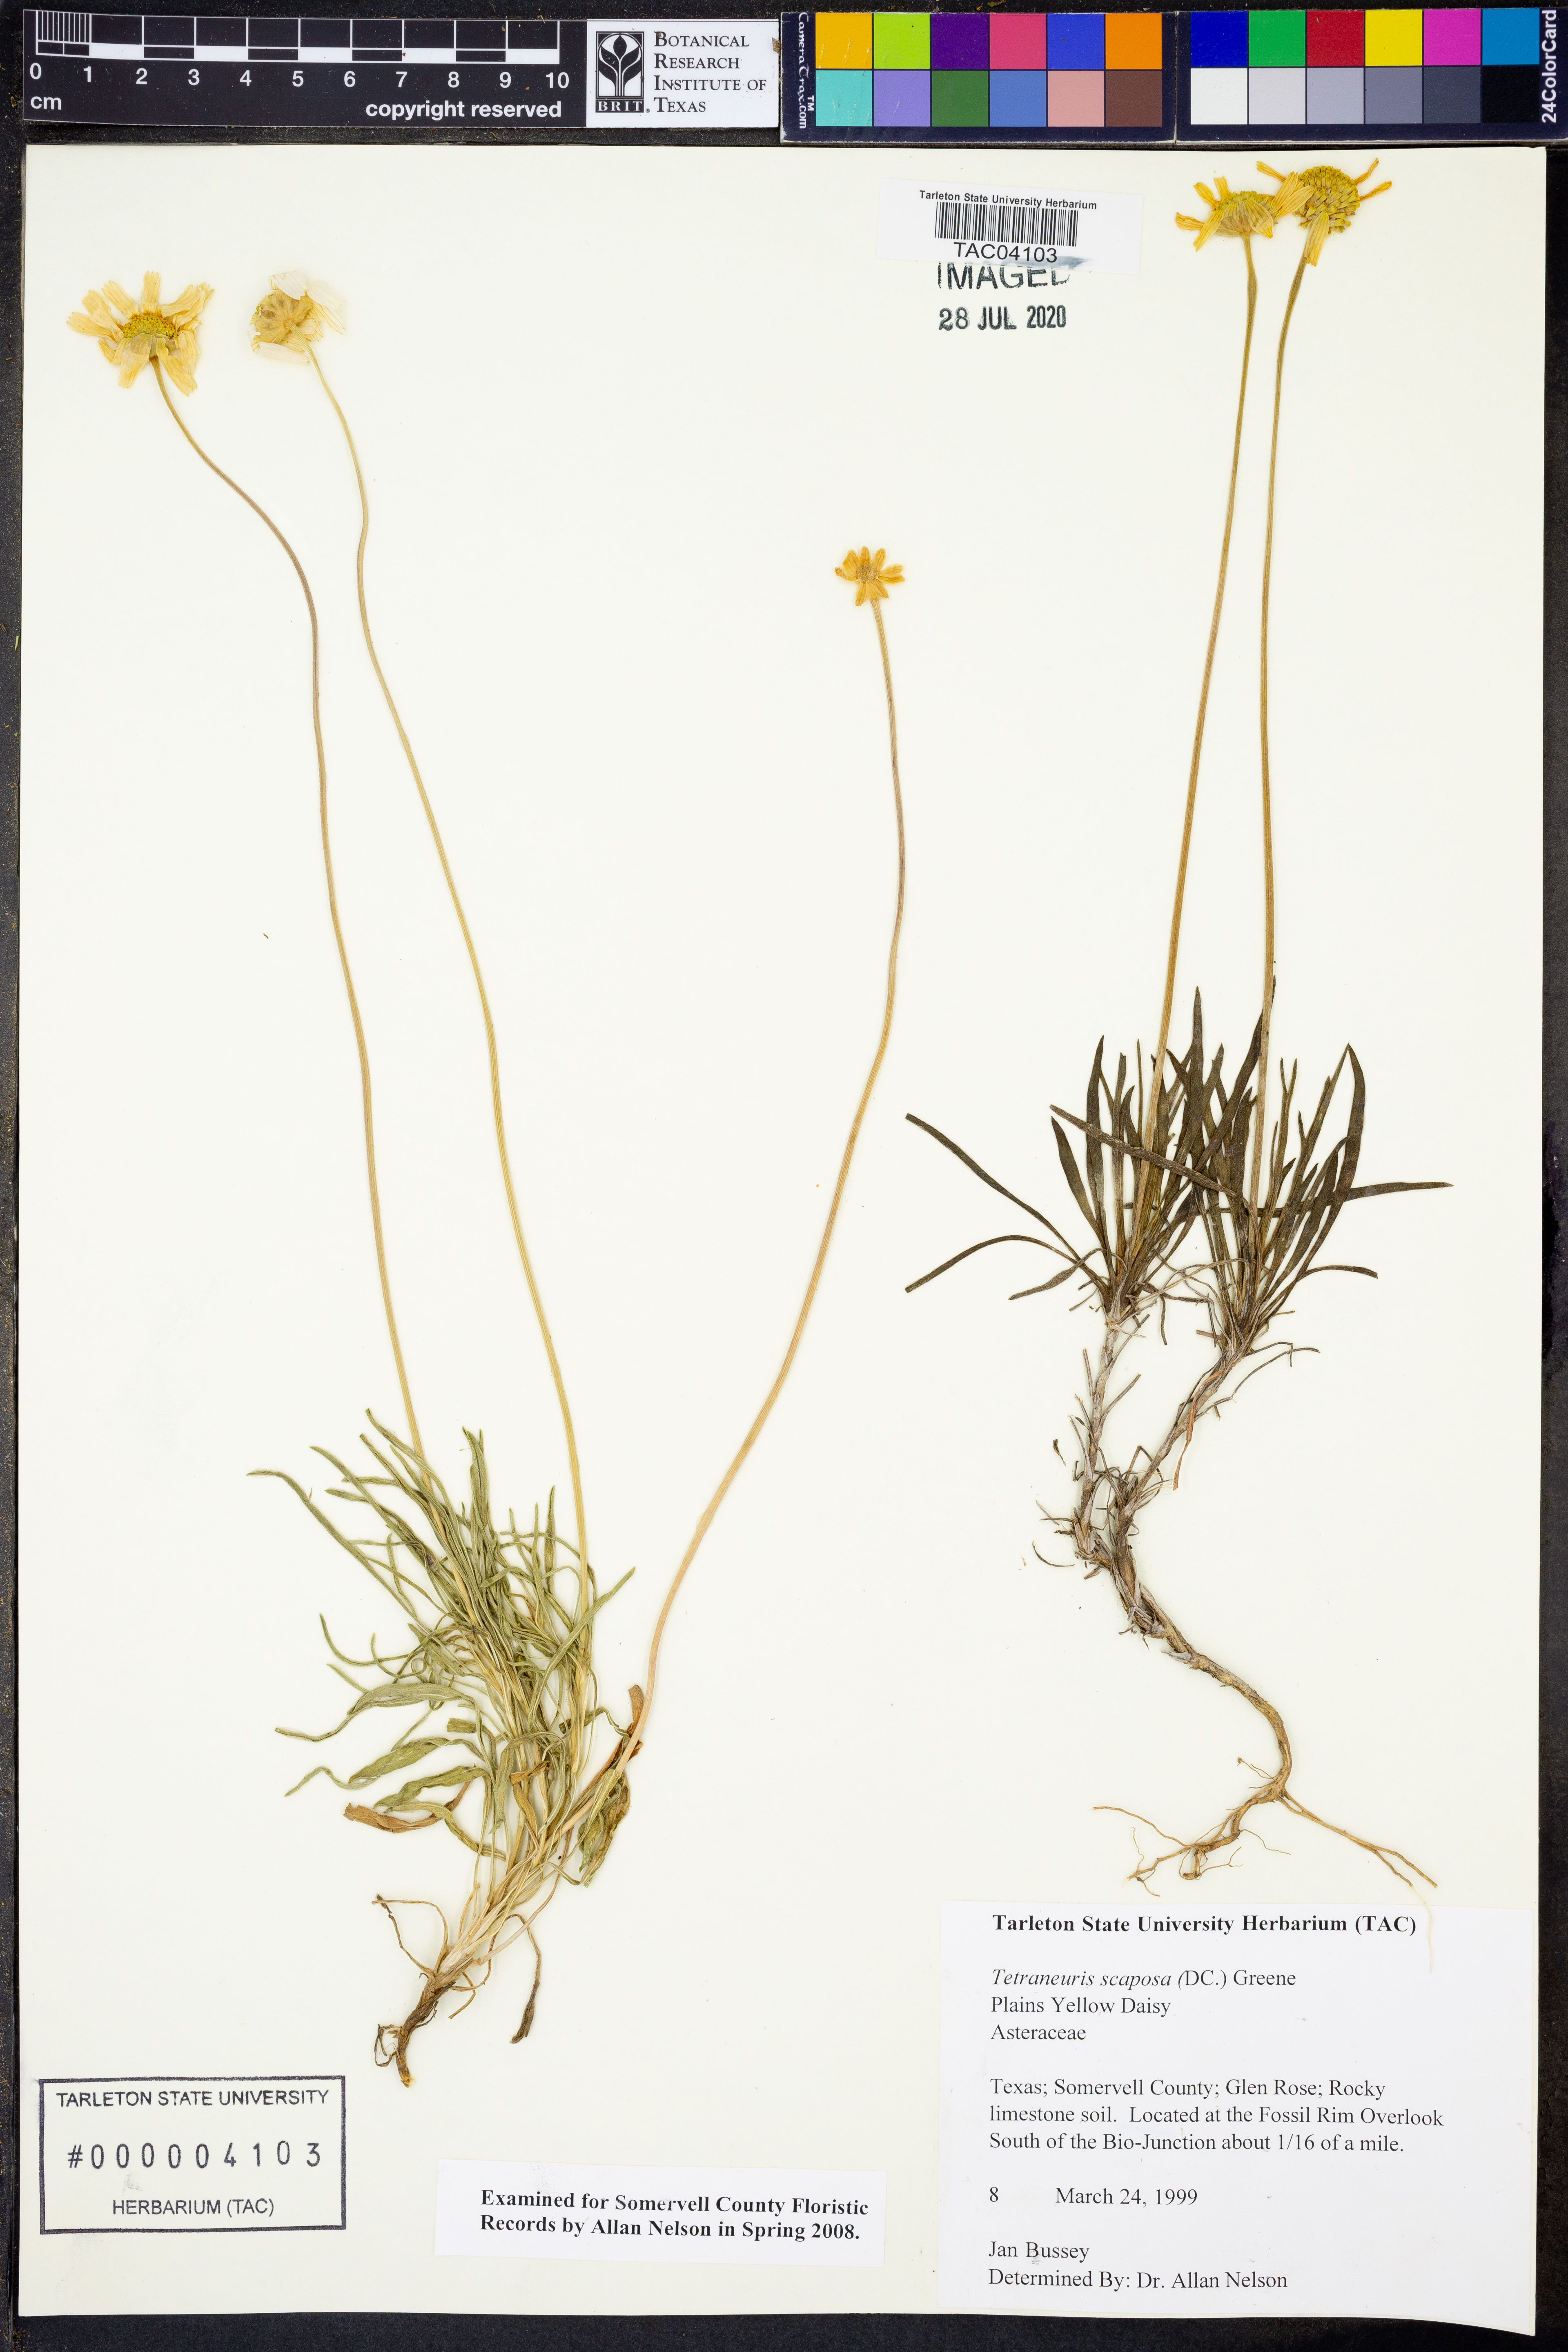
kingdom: Plantae
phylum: Tracheophyta
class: Magnoliopsida
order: Asterales
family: Asteraceae
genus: Tetraneuris
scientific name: Tetraneuris scaposa
